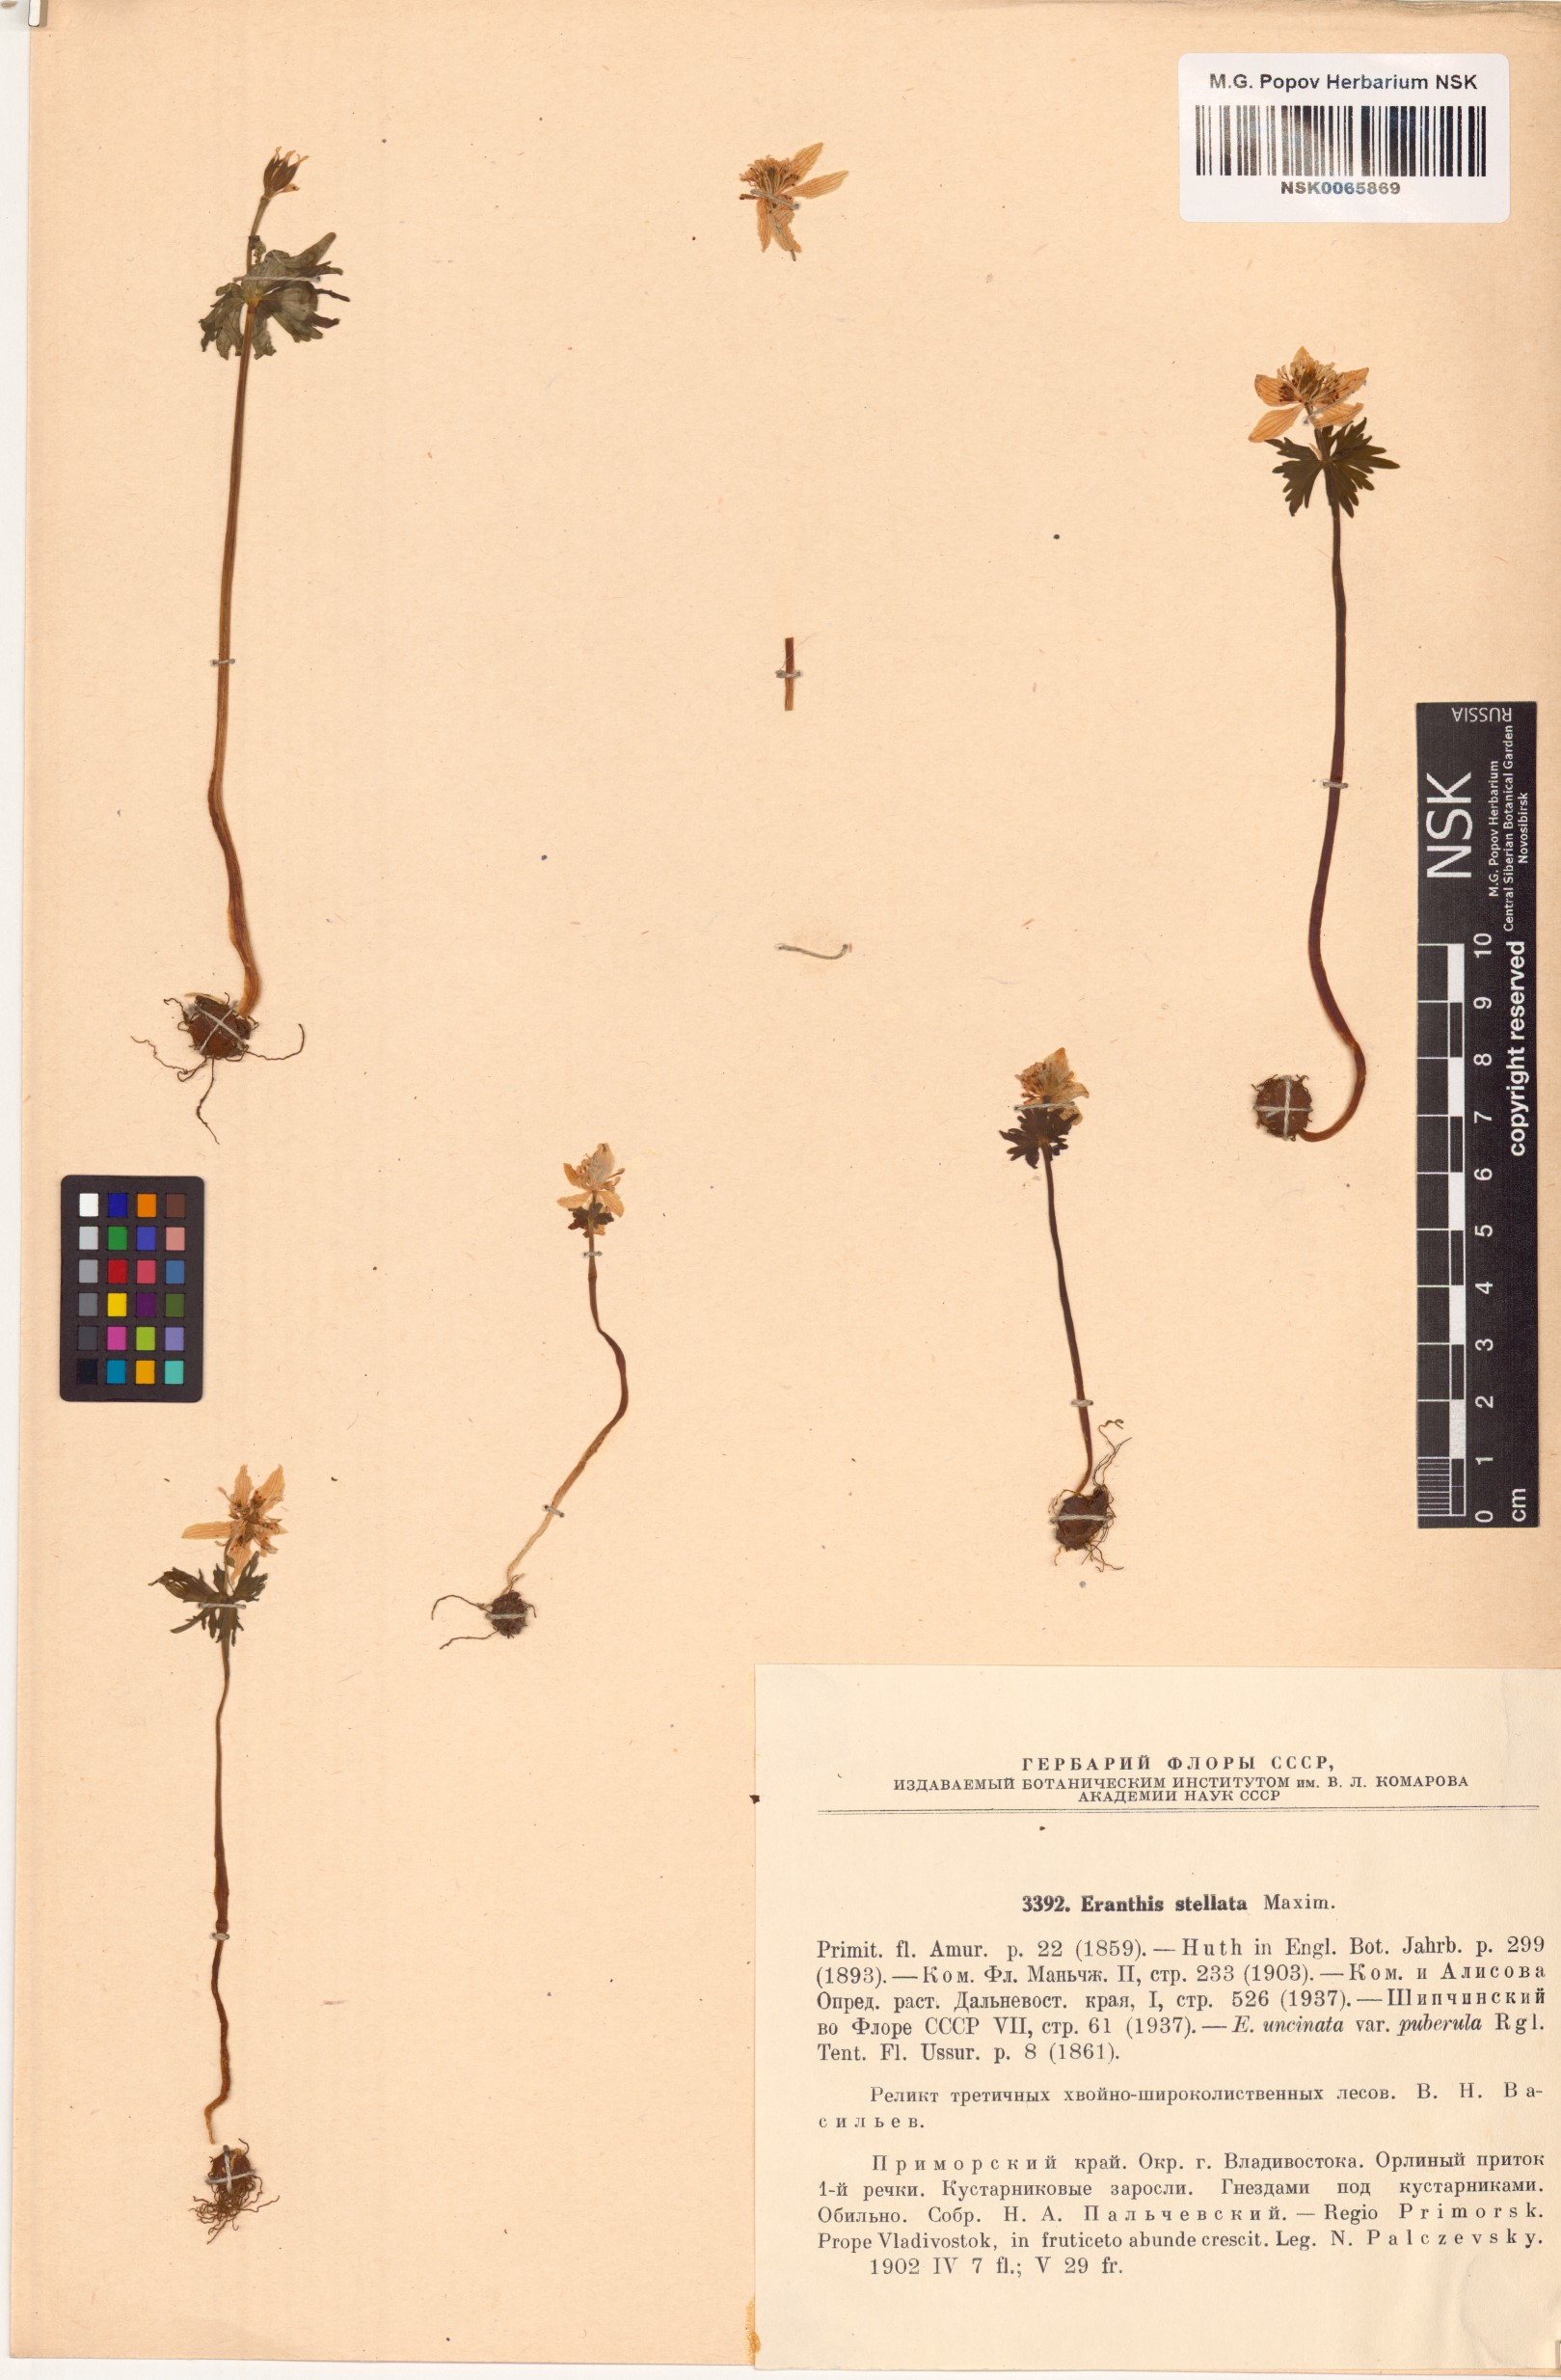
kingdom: Plantae
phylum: Tracheophyta
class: Magnoliopsida
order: Ranunculales
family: Ranunculaceae
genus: Eranthis
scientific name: Eranthis stellata
